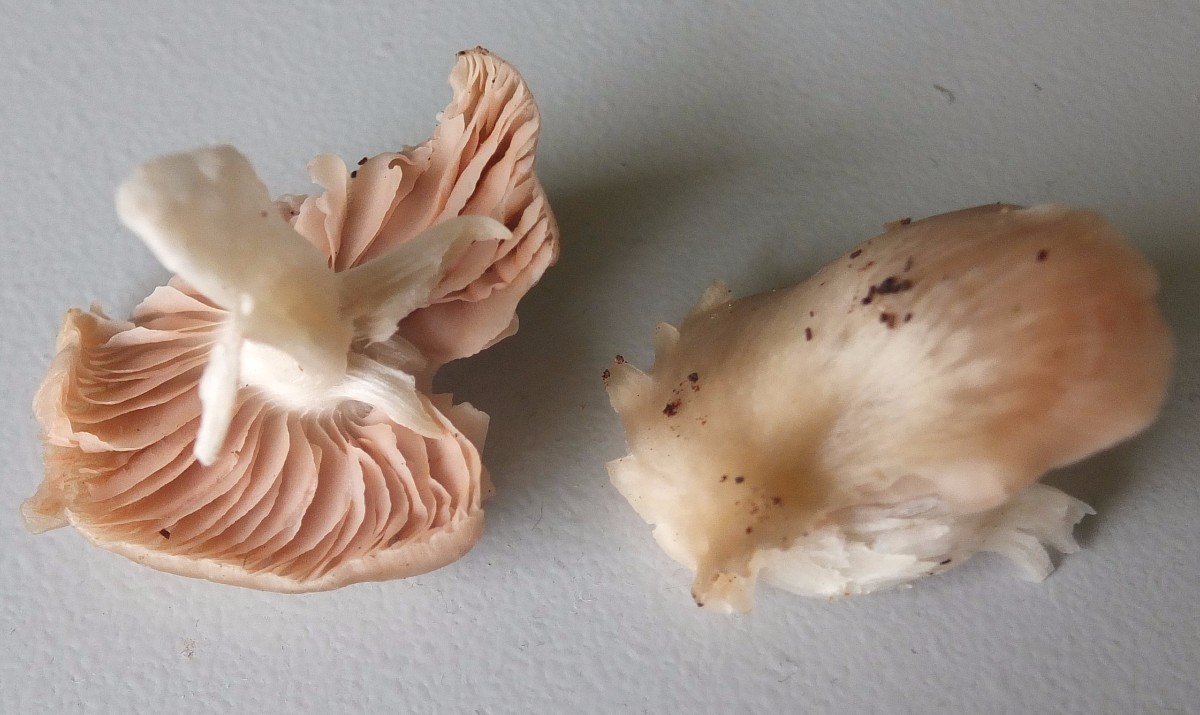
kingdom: Fungi
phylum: Basidiomycota
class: Agaricomycetes
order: Agaricales
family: Entolomataceae
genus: Entoloma
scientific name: Entoloma lividoalbum
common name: lysstokket rødblad
